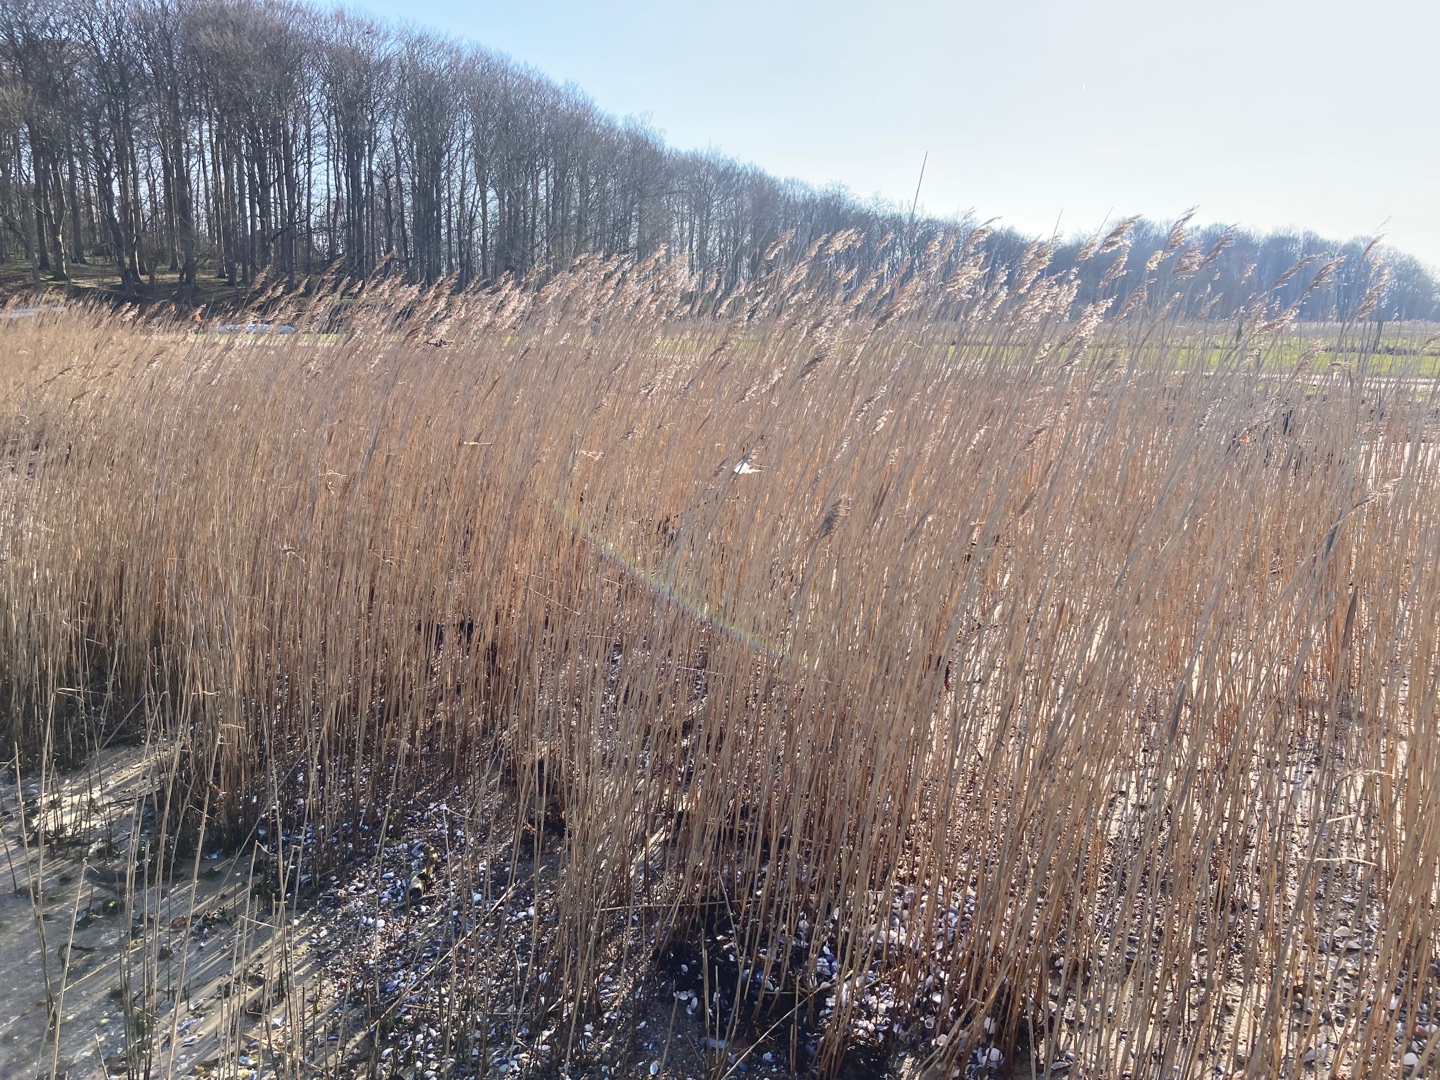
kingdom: Plantae
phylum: Tracheophyta
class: Liliopsida
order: Poales
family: Poaceae
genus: Phragmites
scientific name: Phragmites australis
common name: Tagrør
